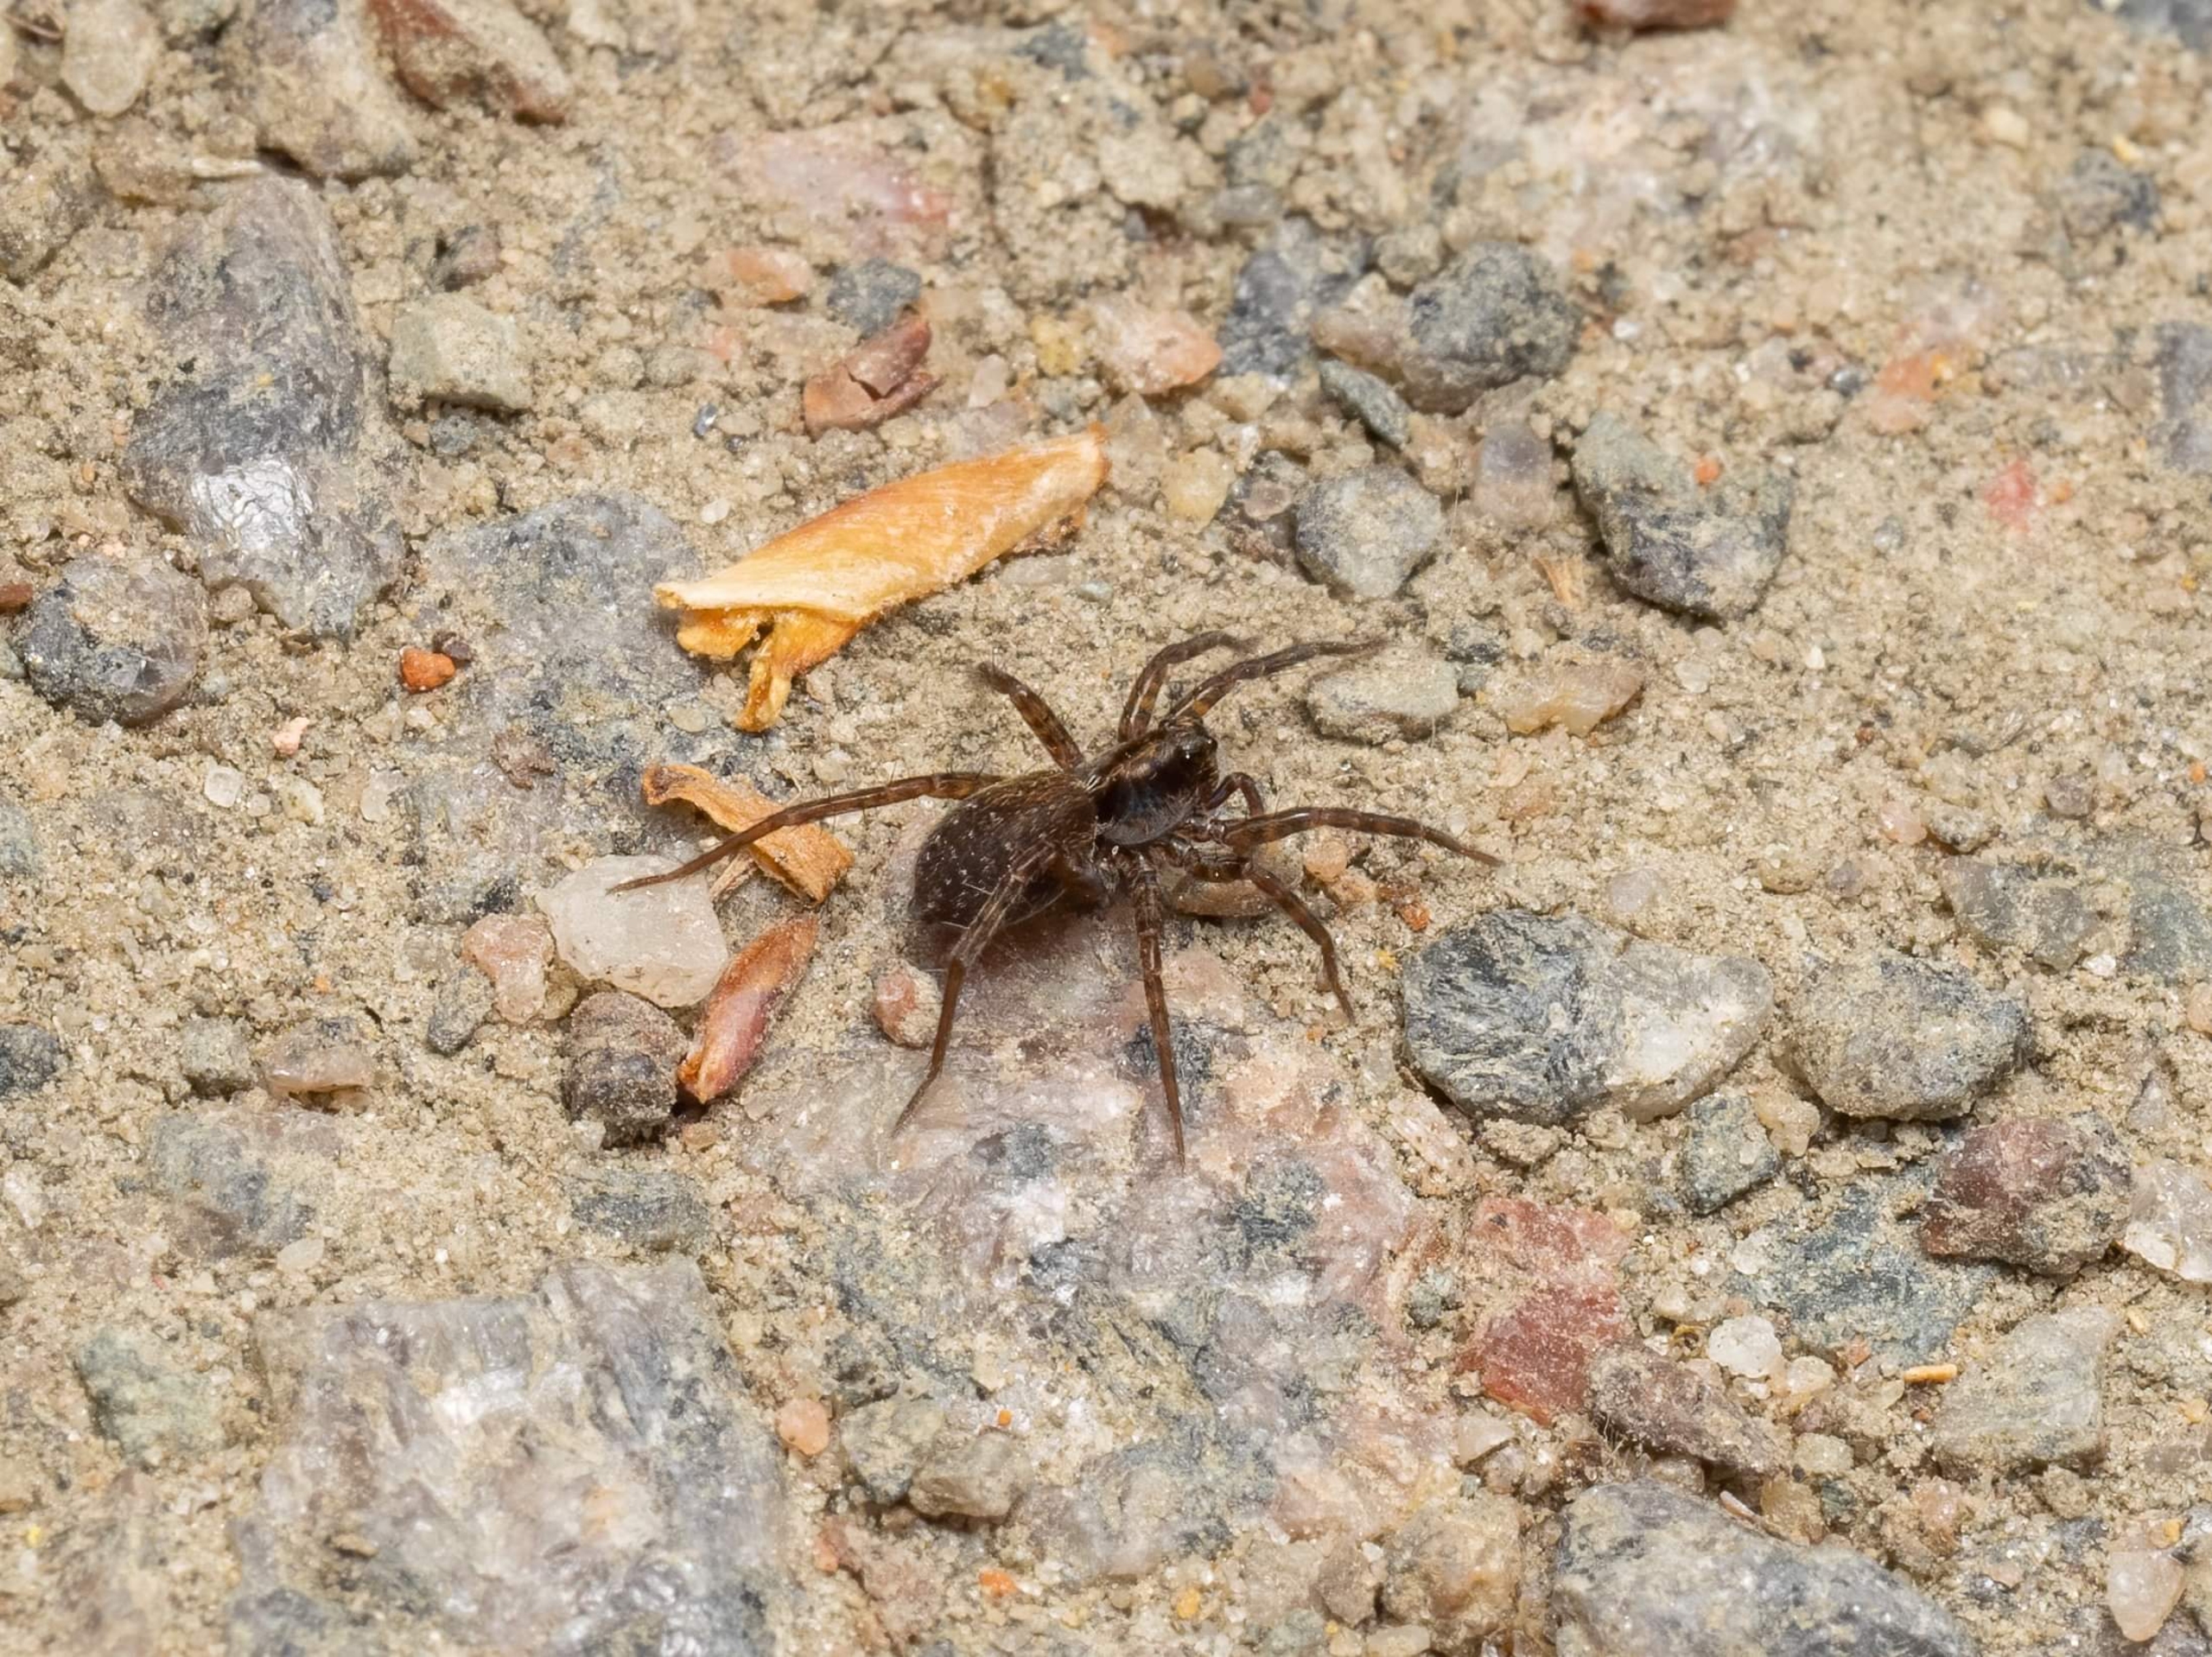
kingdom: Animalia
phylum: Arthropoda
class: Arachnida
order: Araneae
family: Lycosidae
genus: Pardosa
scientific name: Pardosa
